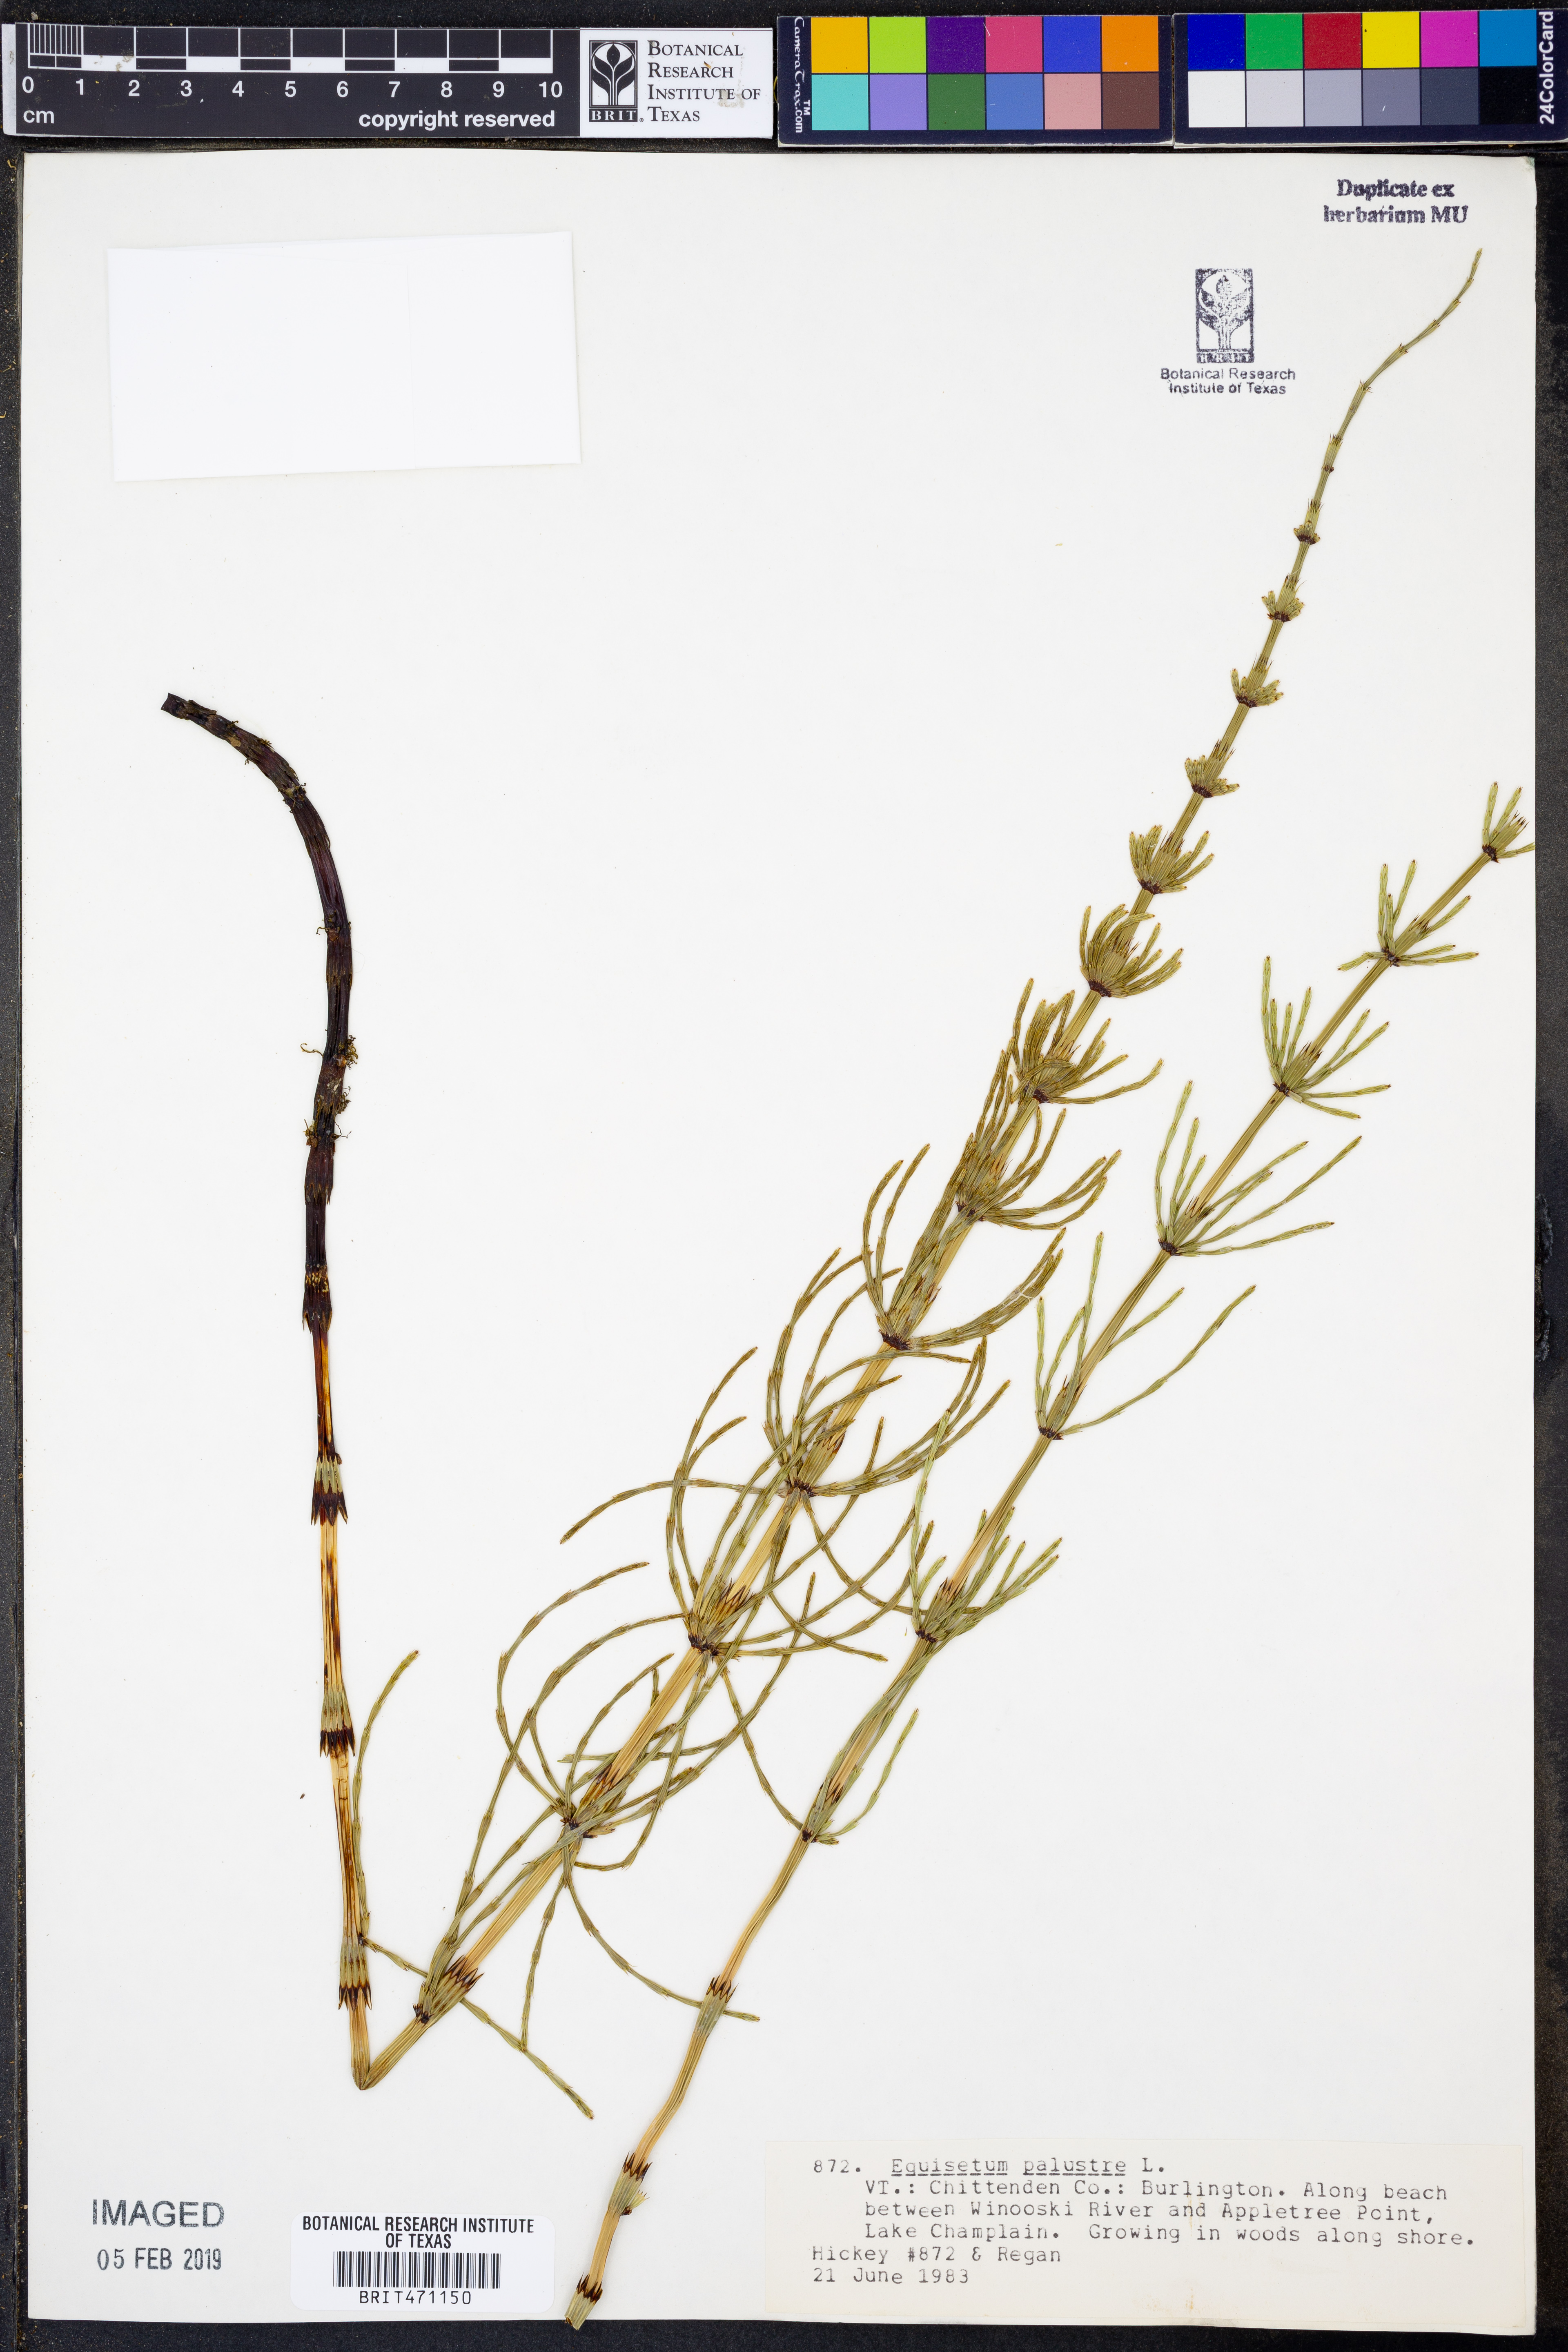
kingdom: Plantae
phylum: Tracheophyta
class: Polypodiopsida
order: Equisetales
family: Equisetaceae
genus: Equisetum
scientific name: Equisetum palustre
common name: Marsh horsetail
